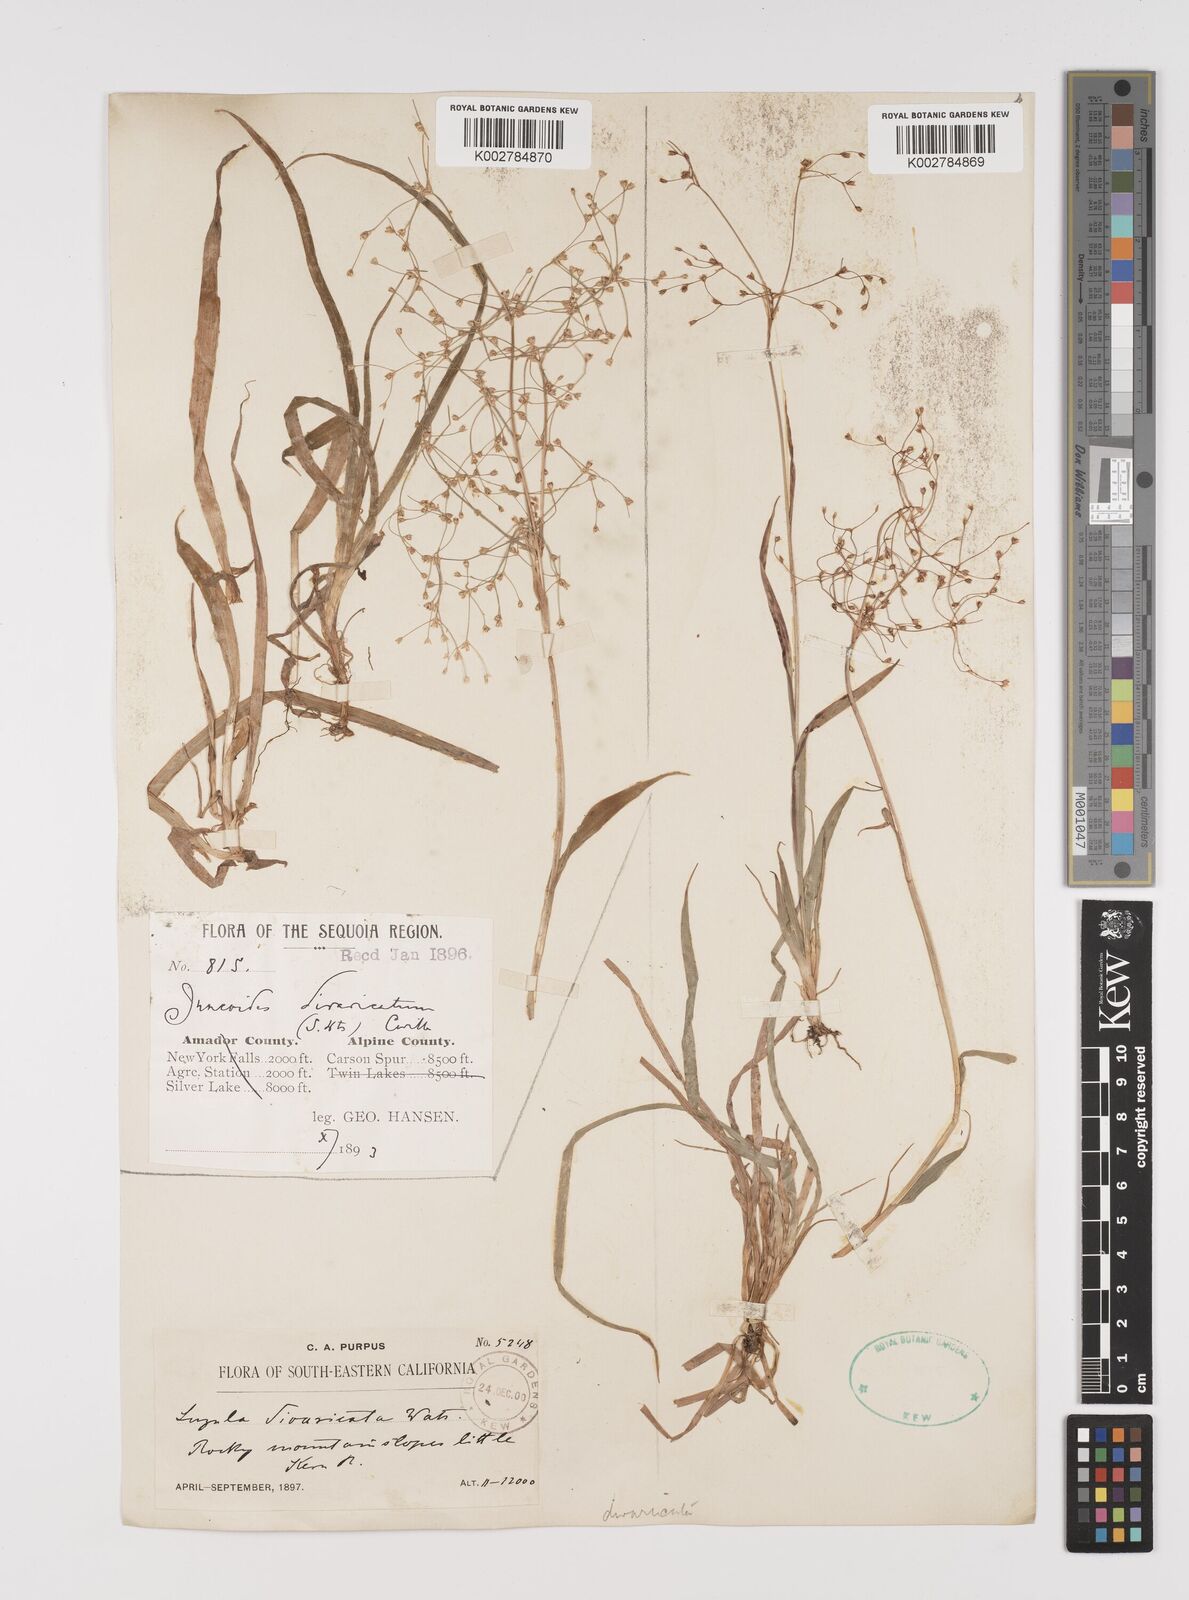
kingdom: Plantae
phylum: Tracheophyta
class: Liliopsida
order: Poales
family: Juncaceae
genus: Luzula
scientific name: Luzula divaricata
